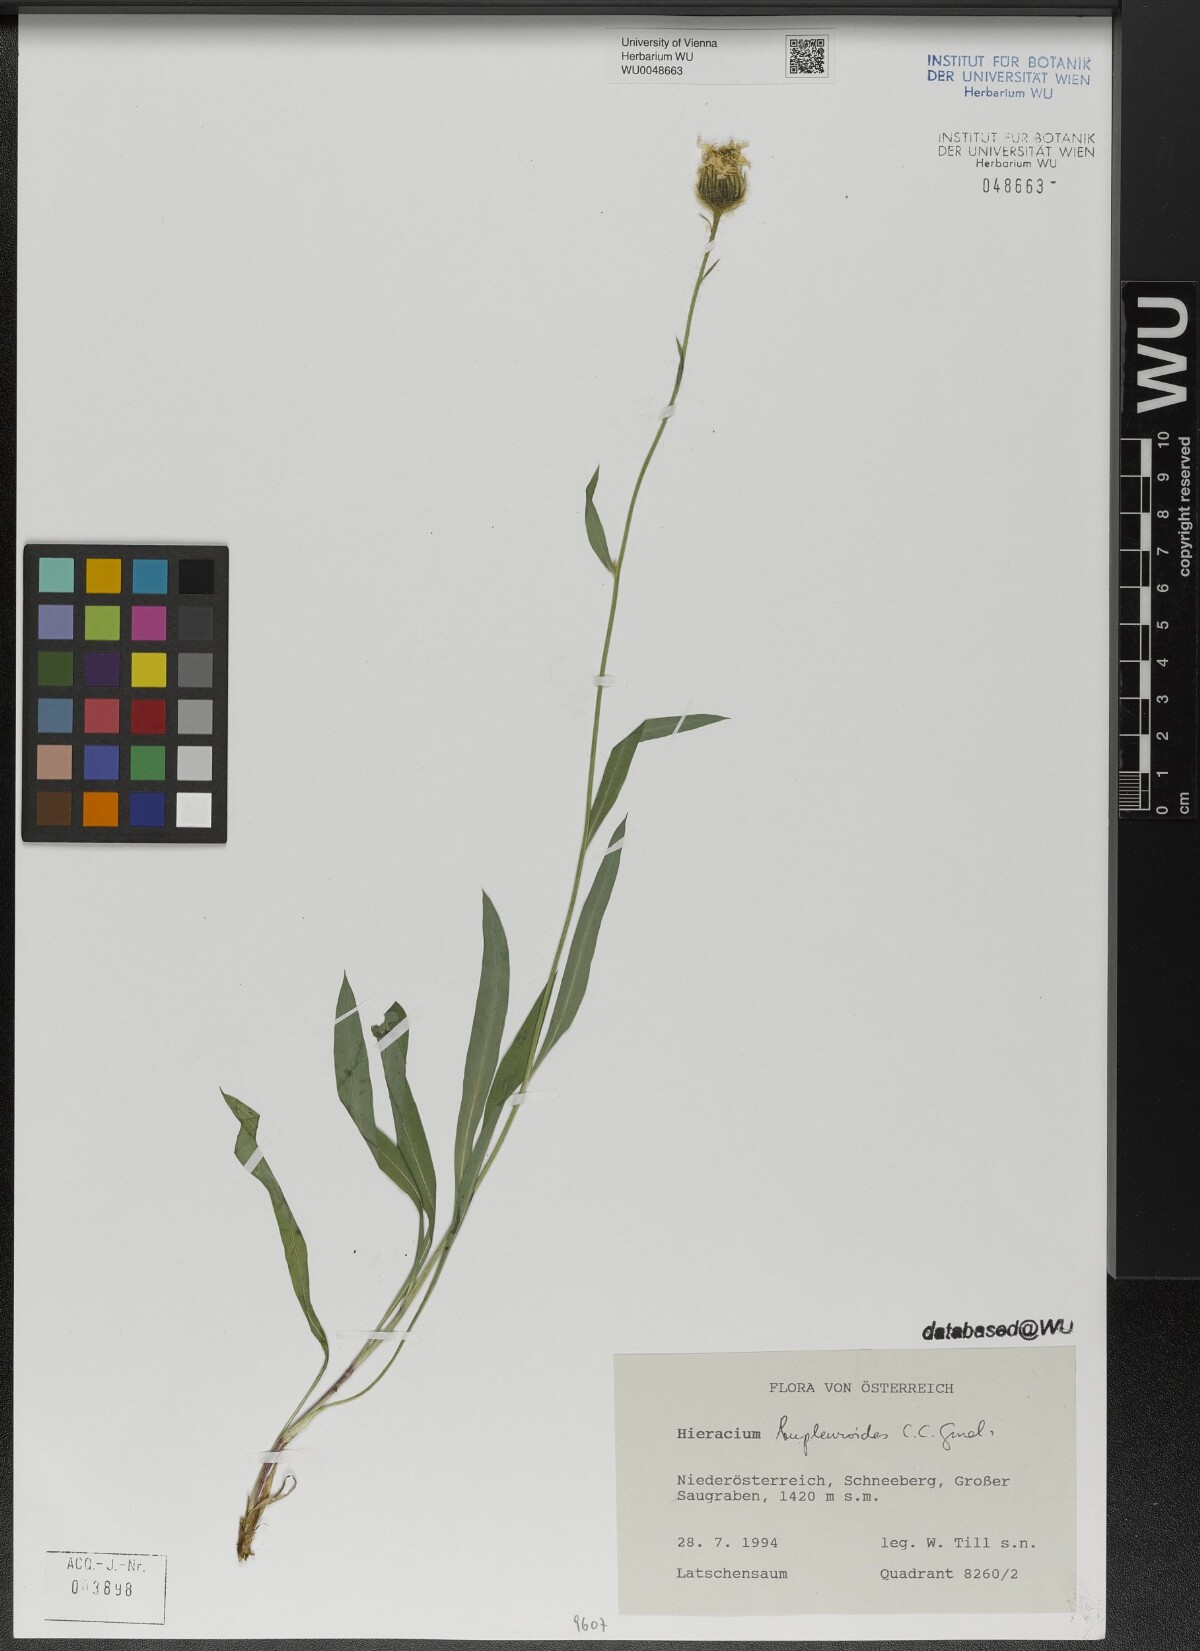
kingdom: Plantae
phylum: Tracheophyta
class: Magnoliopsida
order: Asterales
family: Asteraceae
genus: Hieracium
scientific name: Hieracium bupleuroides
